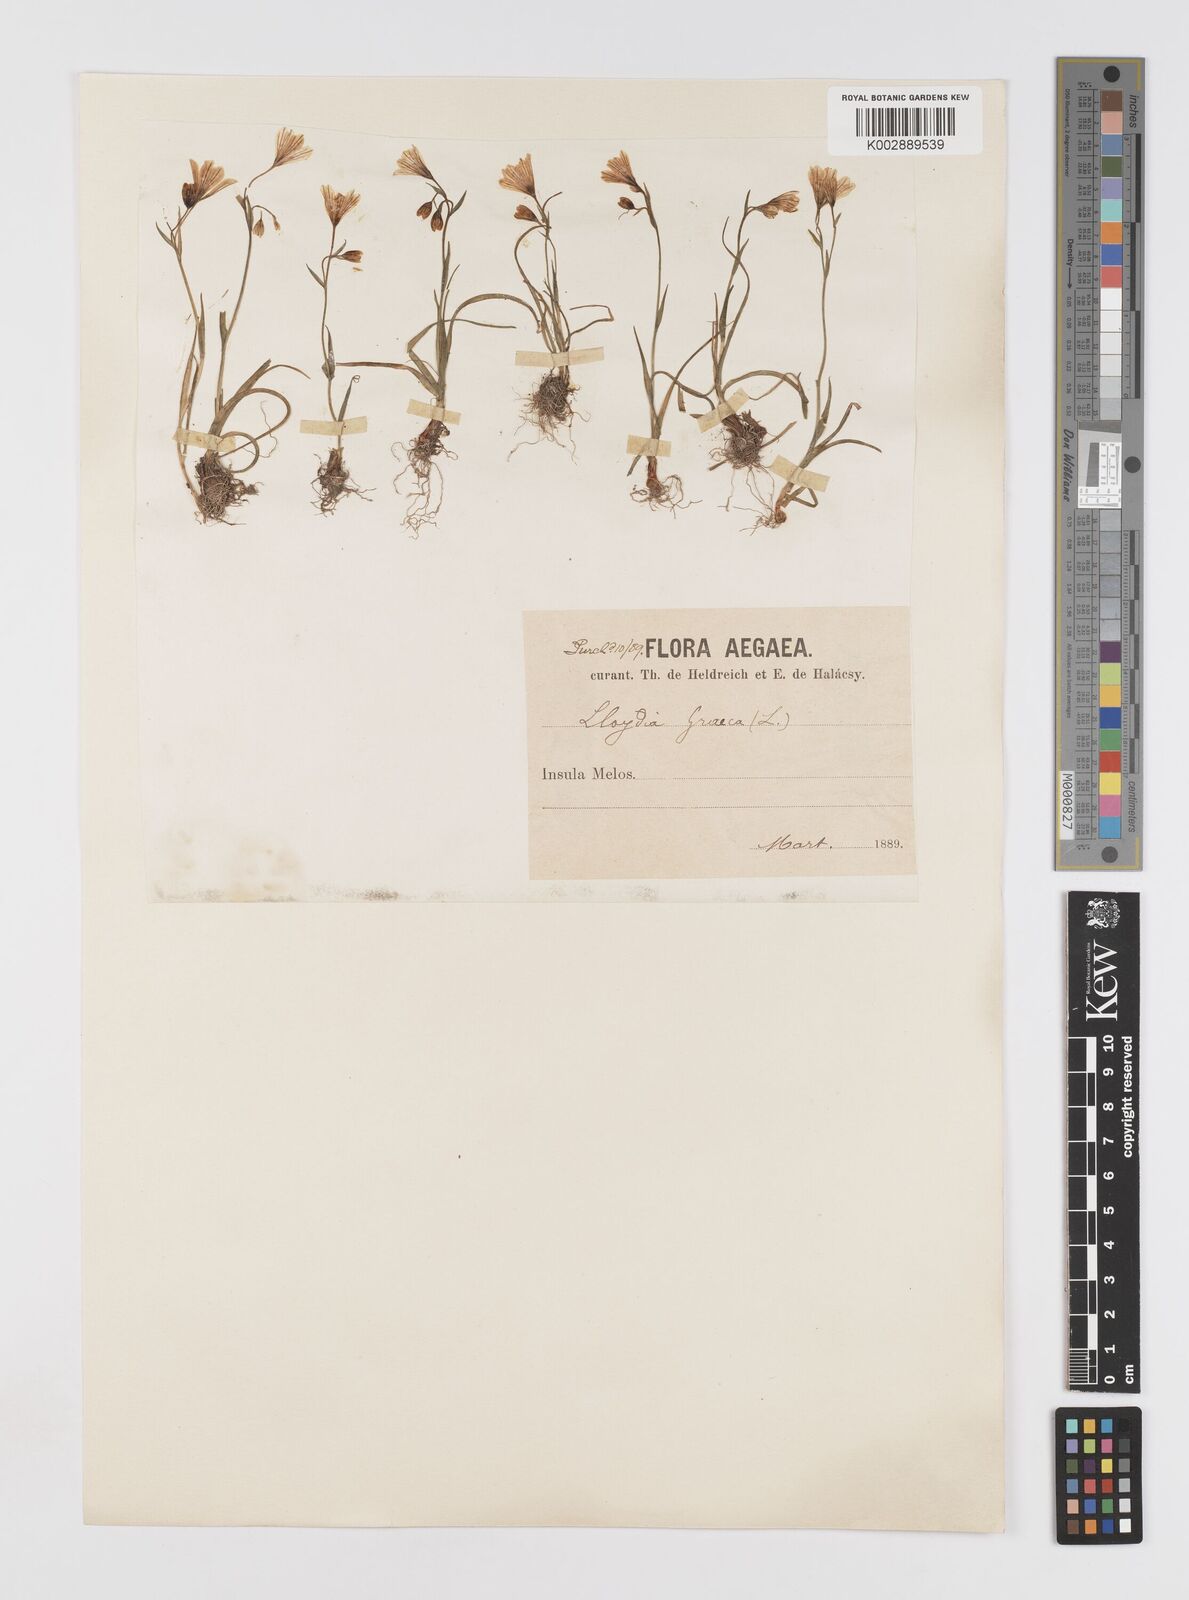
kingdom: Plantae
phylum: Tracheophyta
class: Liliopsida
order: Liliales
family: Liliaceae
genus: Gagea
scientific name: Gagea graeca
